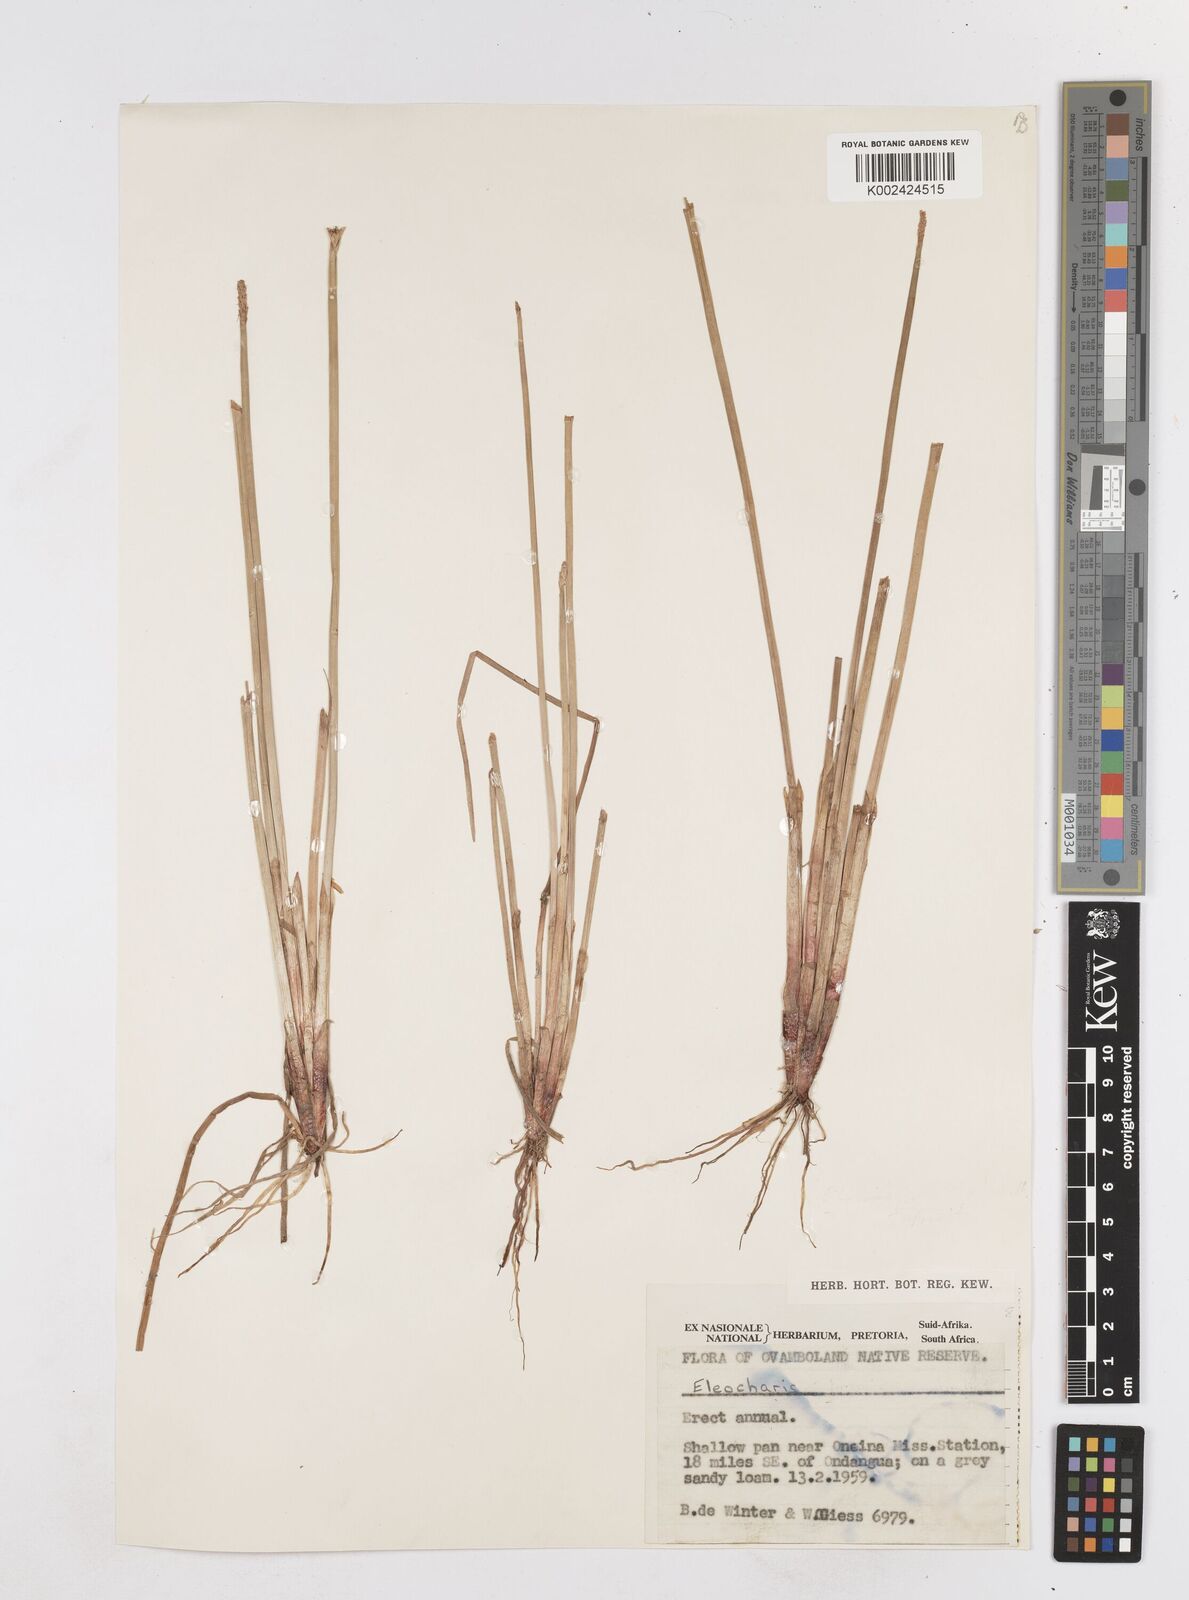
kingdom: Plantae
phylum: Tracheophyta
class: Liliopsida
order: Poales
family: Cyperaceae
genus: Eleocharis
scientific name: Eleocharis acutangula
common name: Acute spikerush
